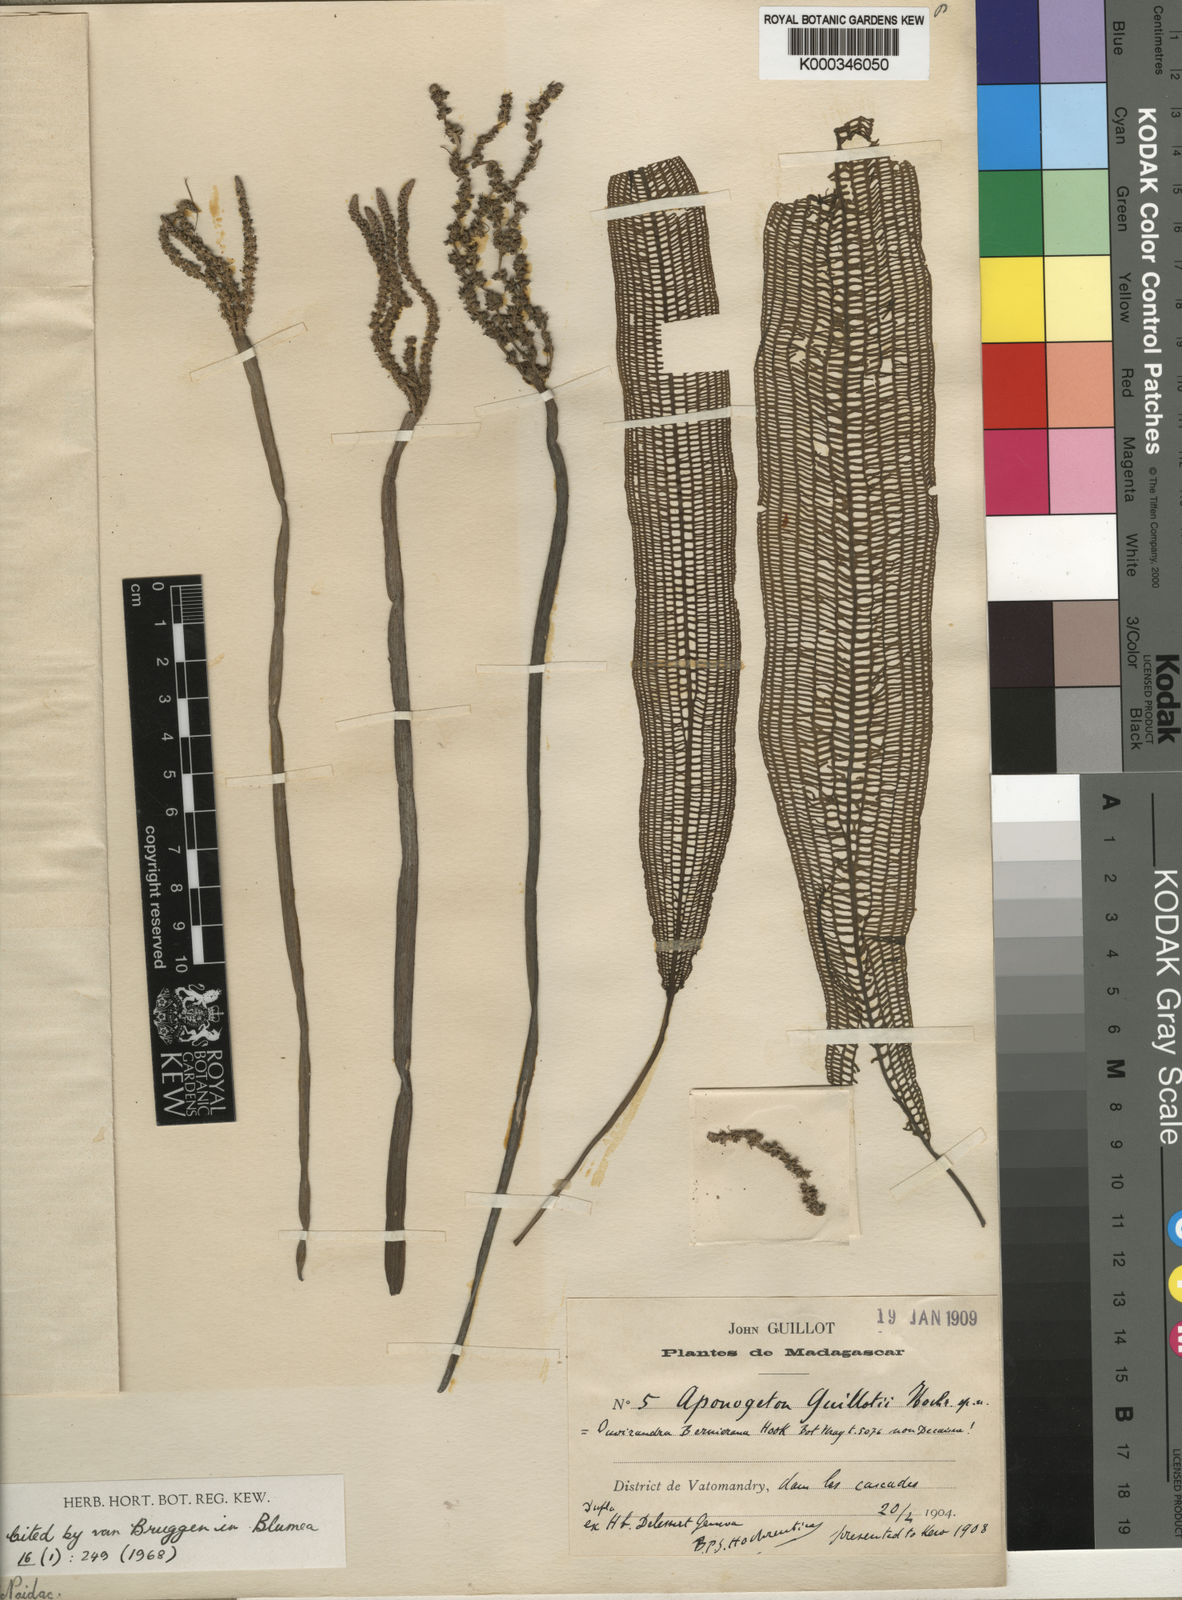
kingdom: Plantae
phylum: Tracheophyta
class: Liliopsida
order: Alismatales
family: Aponogetonaceae
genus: Aponogeton
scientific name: Aponogeton madagascariensis
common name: Laceleaf
